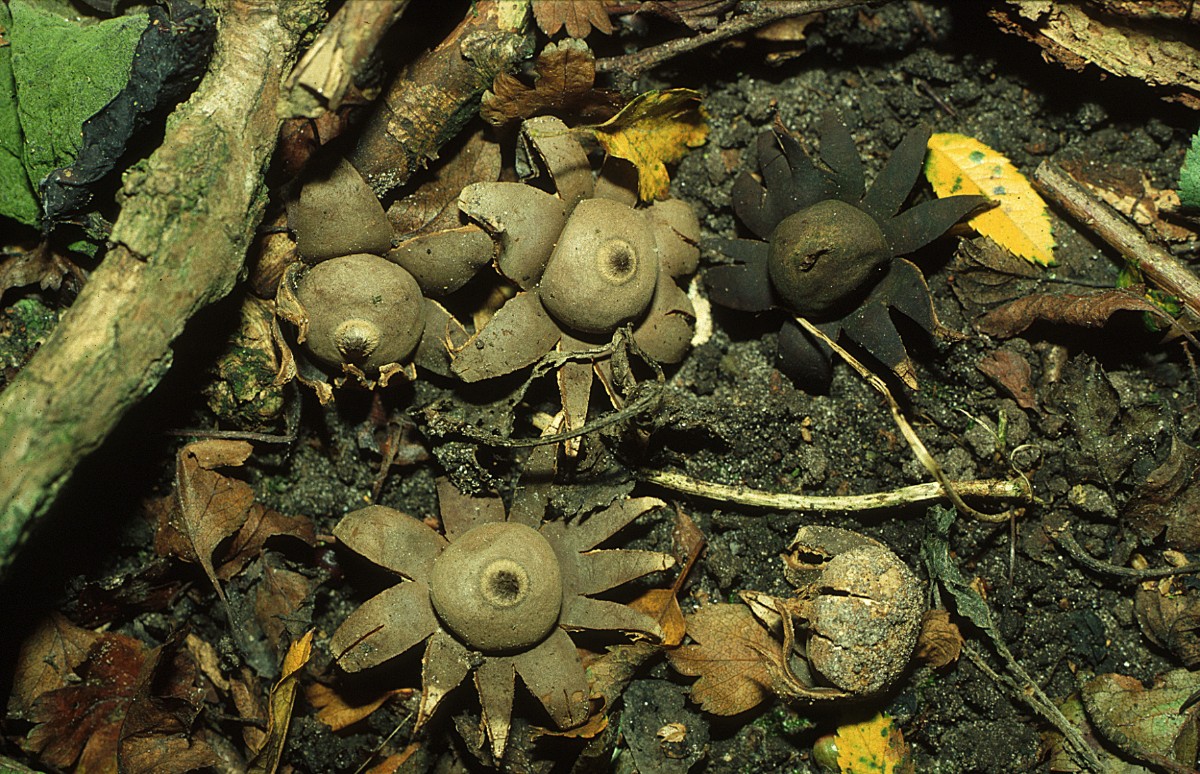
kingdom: Fungi
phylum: Basidiomycota
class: Agaricomycetes
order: Geastrales
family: Geastraceae
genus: Geastrum
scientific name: Geastrum corollinum
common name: steppe-stjernebold
